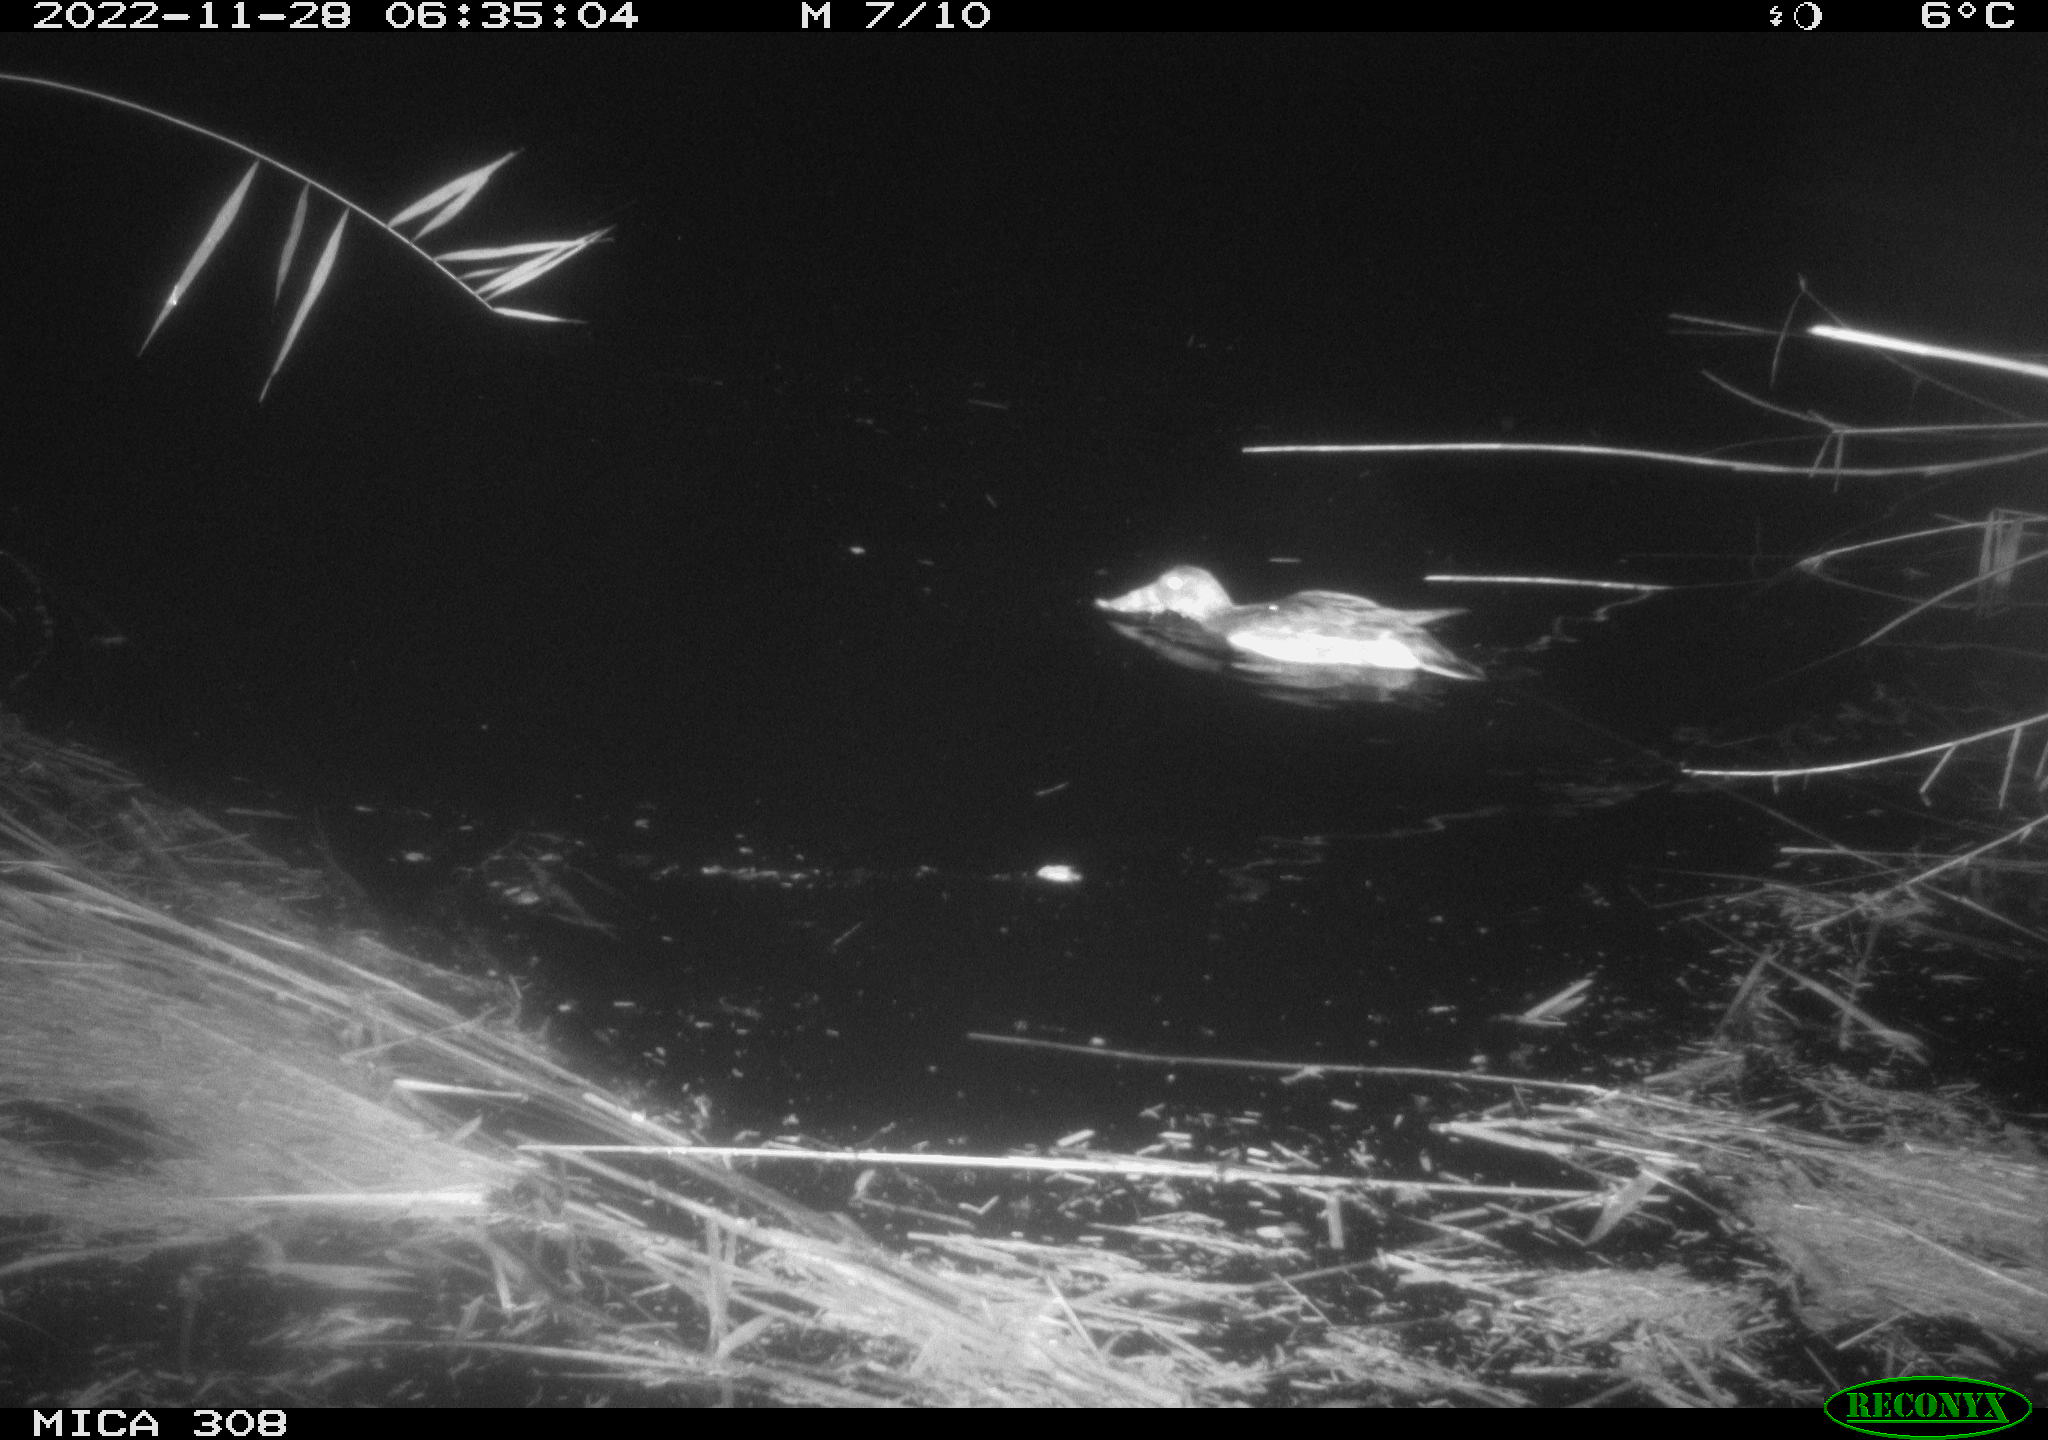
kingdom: Animalia
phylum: Chordata
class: Aves
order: Anseriformes
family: Anatidae
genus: Anas
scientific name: Anas
